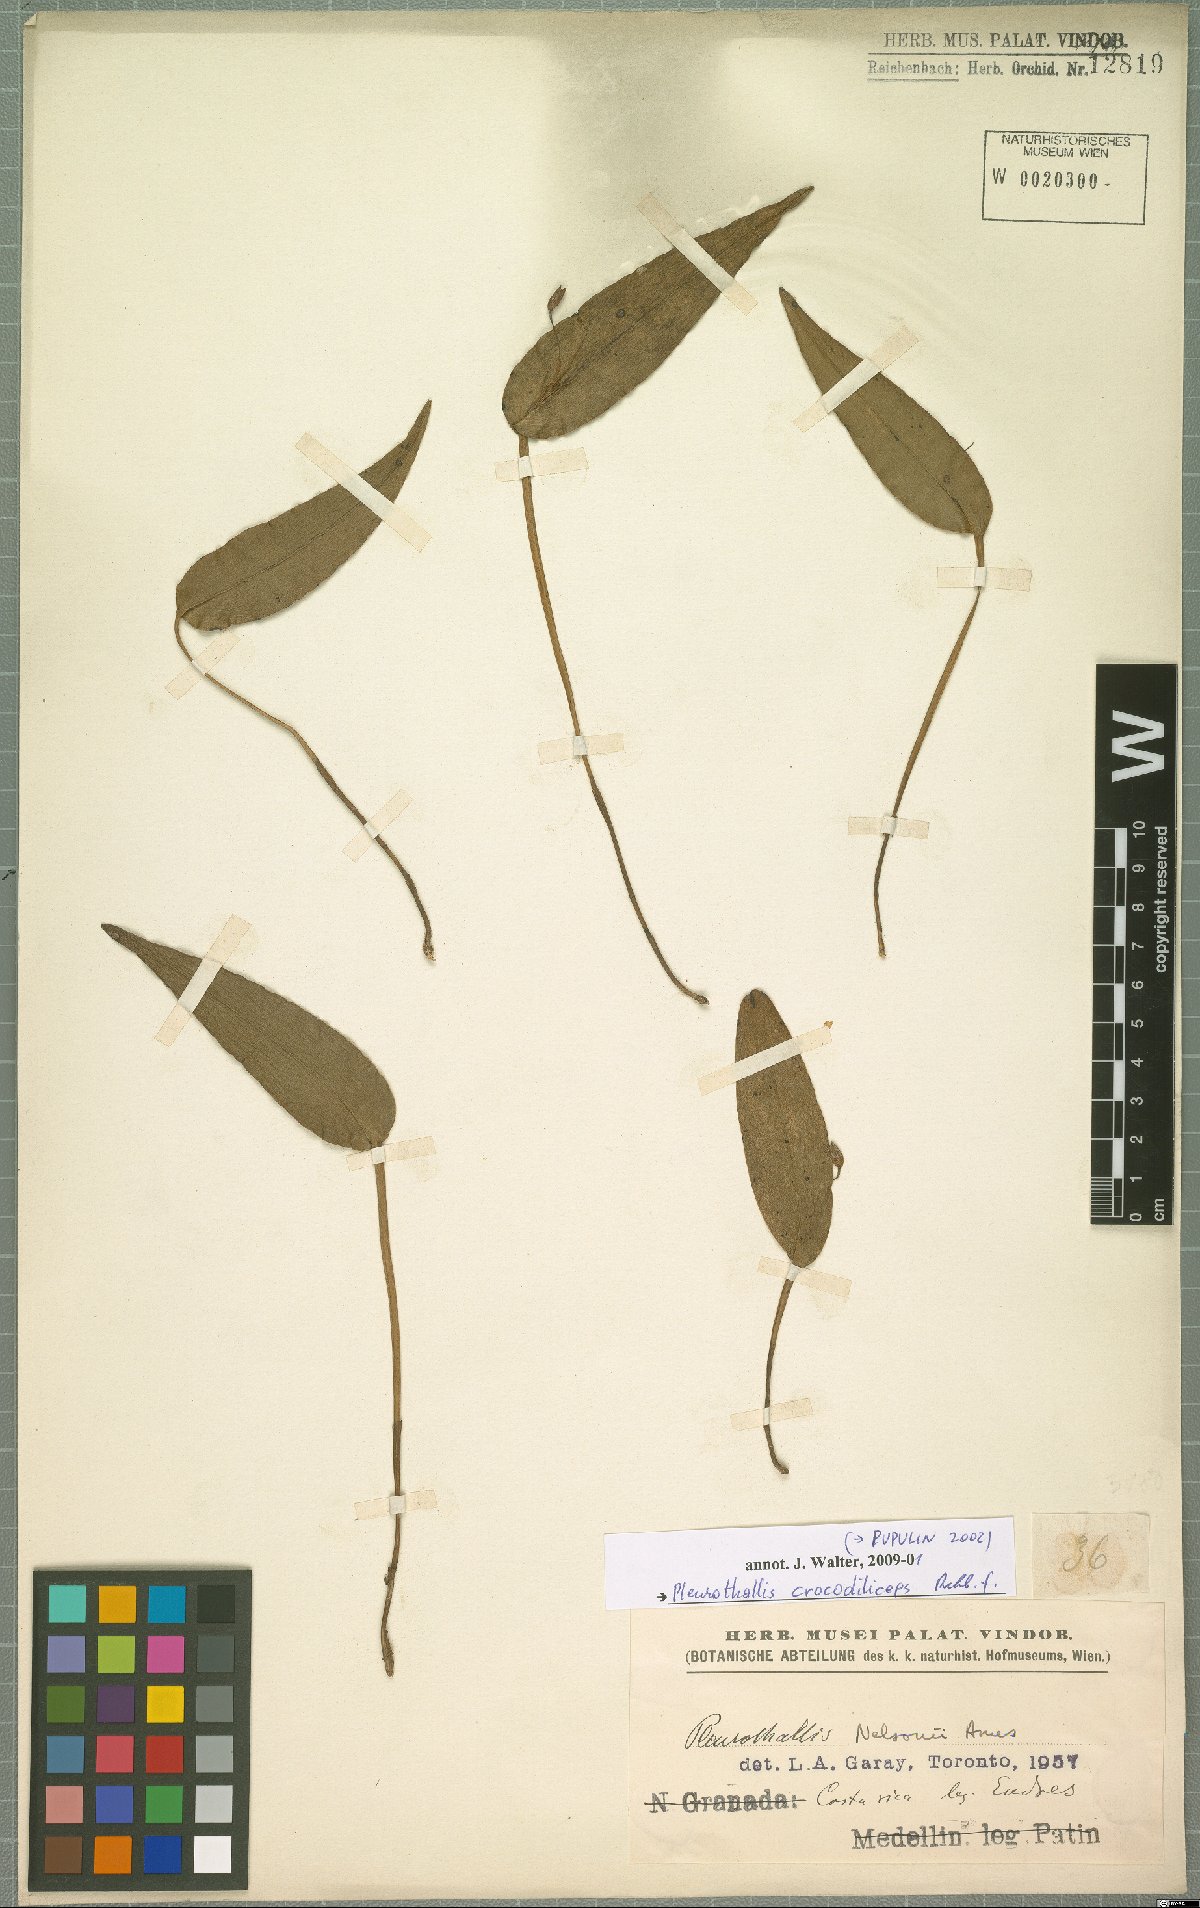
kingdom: Plantae
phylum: Tracheophyta
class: Liliopsida
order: Asparagales
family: Orchidaceae
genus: Pleurothallis
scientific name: Pleurothallis crocodiliceps
